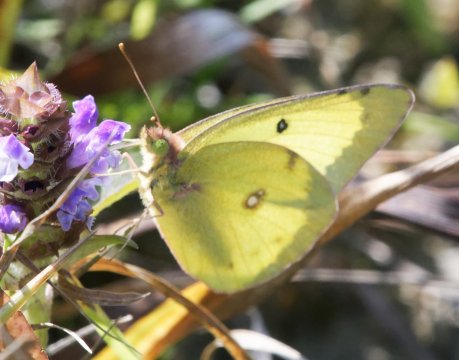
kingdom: Animalia
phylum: Arthropoda
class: Insecta
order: Lepidoptera
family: Pieridae
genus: Colias
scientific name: Colias philodice
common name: Clouded Sulphur
